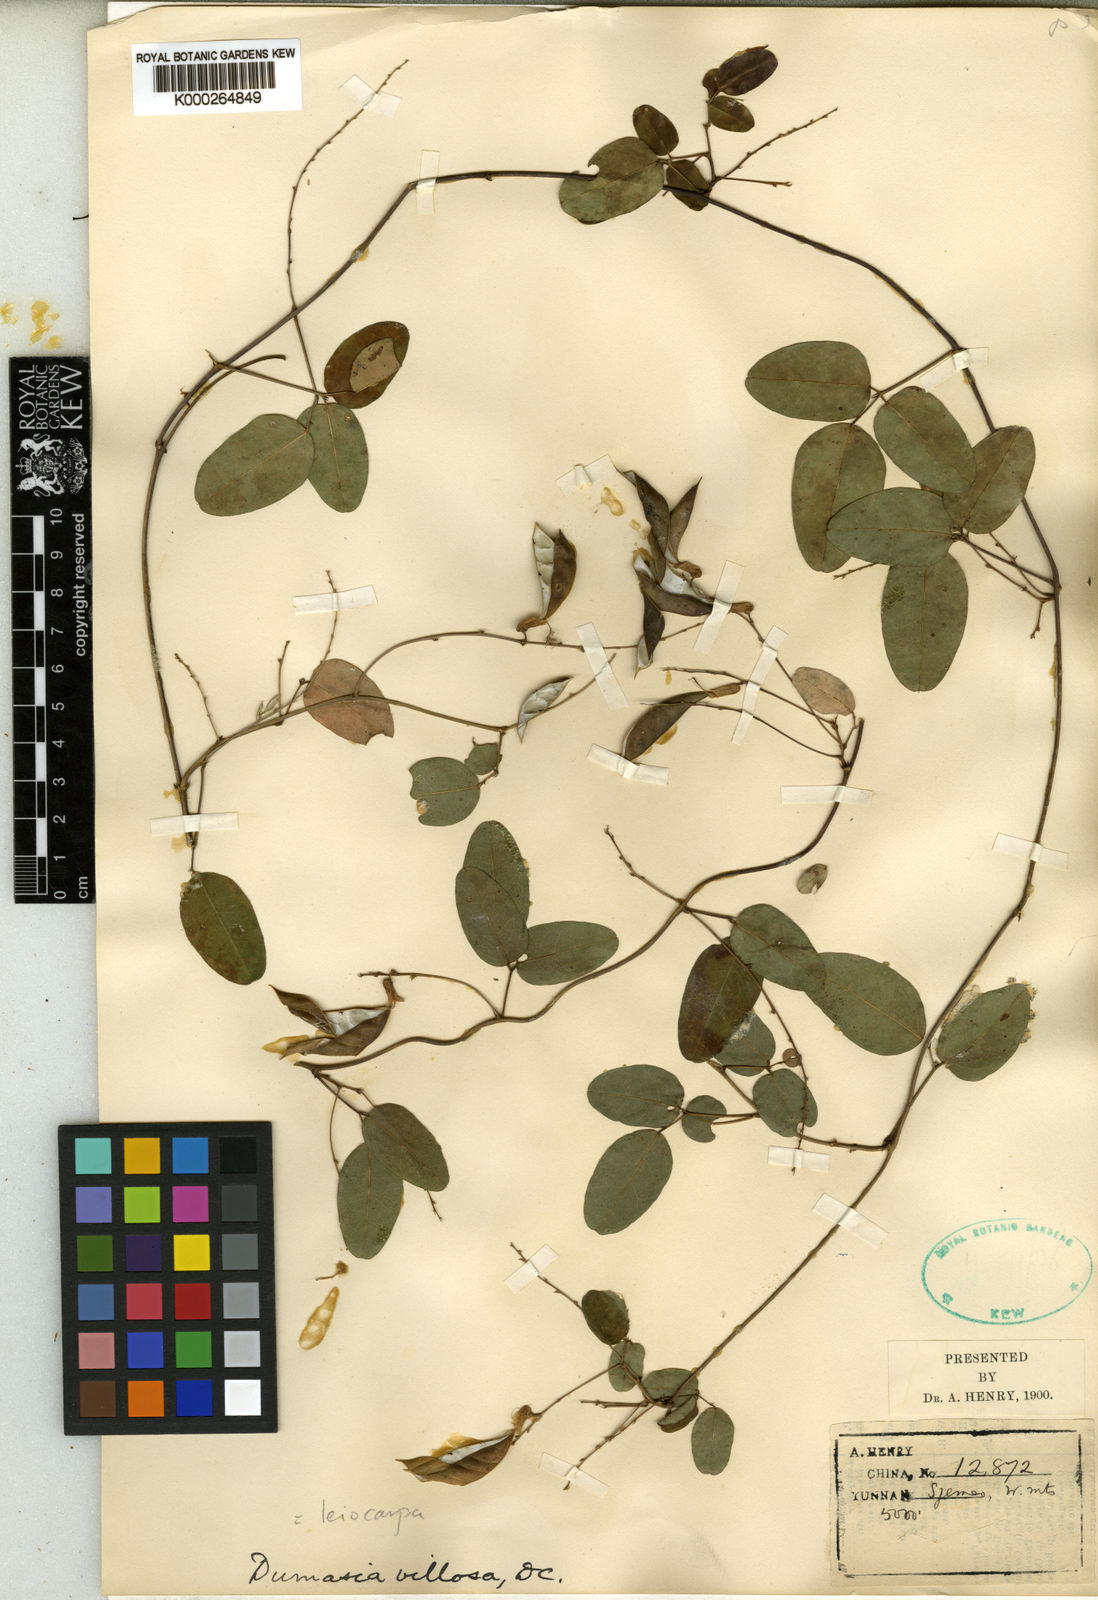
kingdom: Plantae
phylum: Tracheophyta
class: Magnoliopsida
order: Fabales
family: Fabaceae
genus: Dumasia
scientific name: Dumasia villosa
